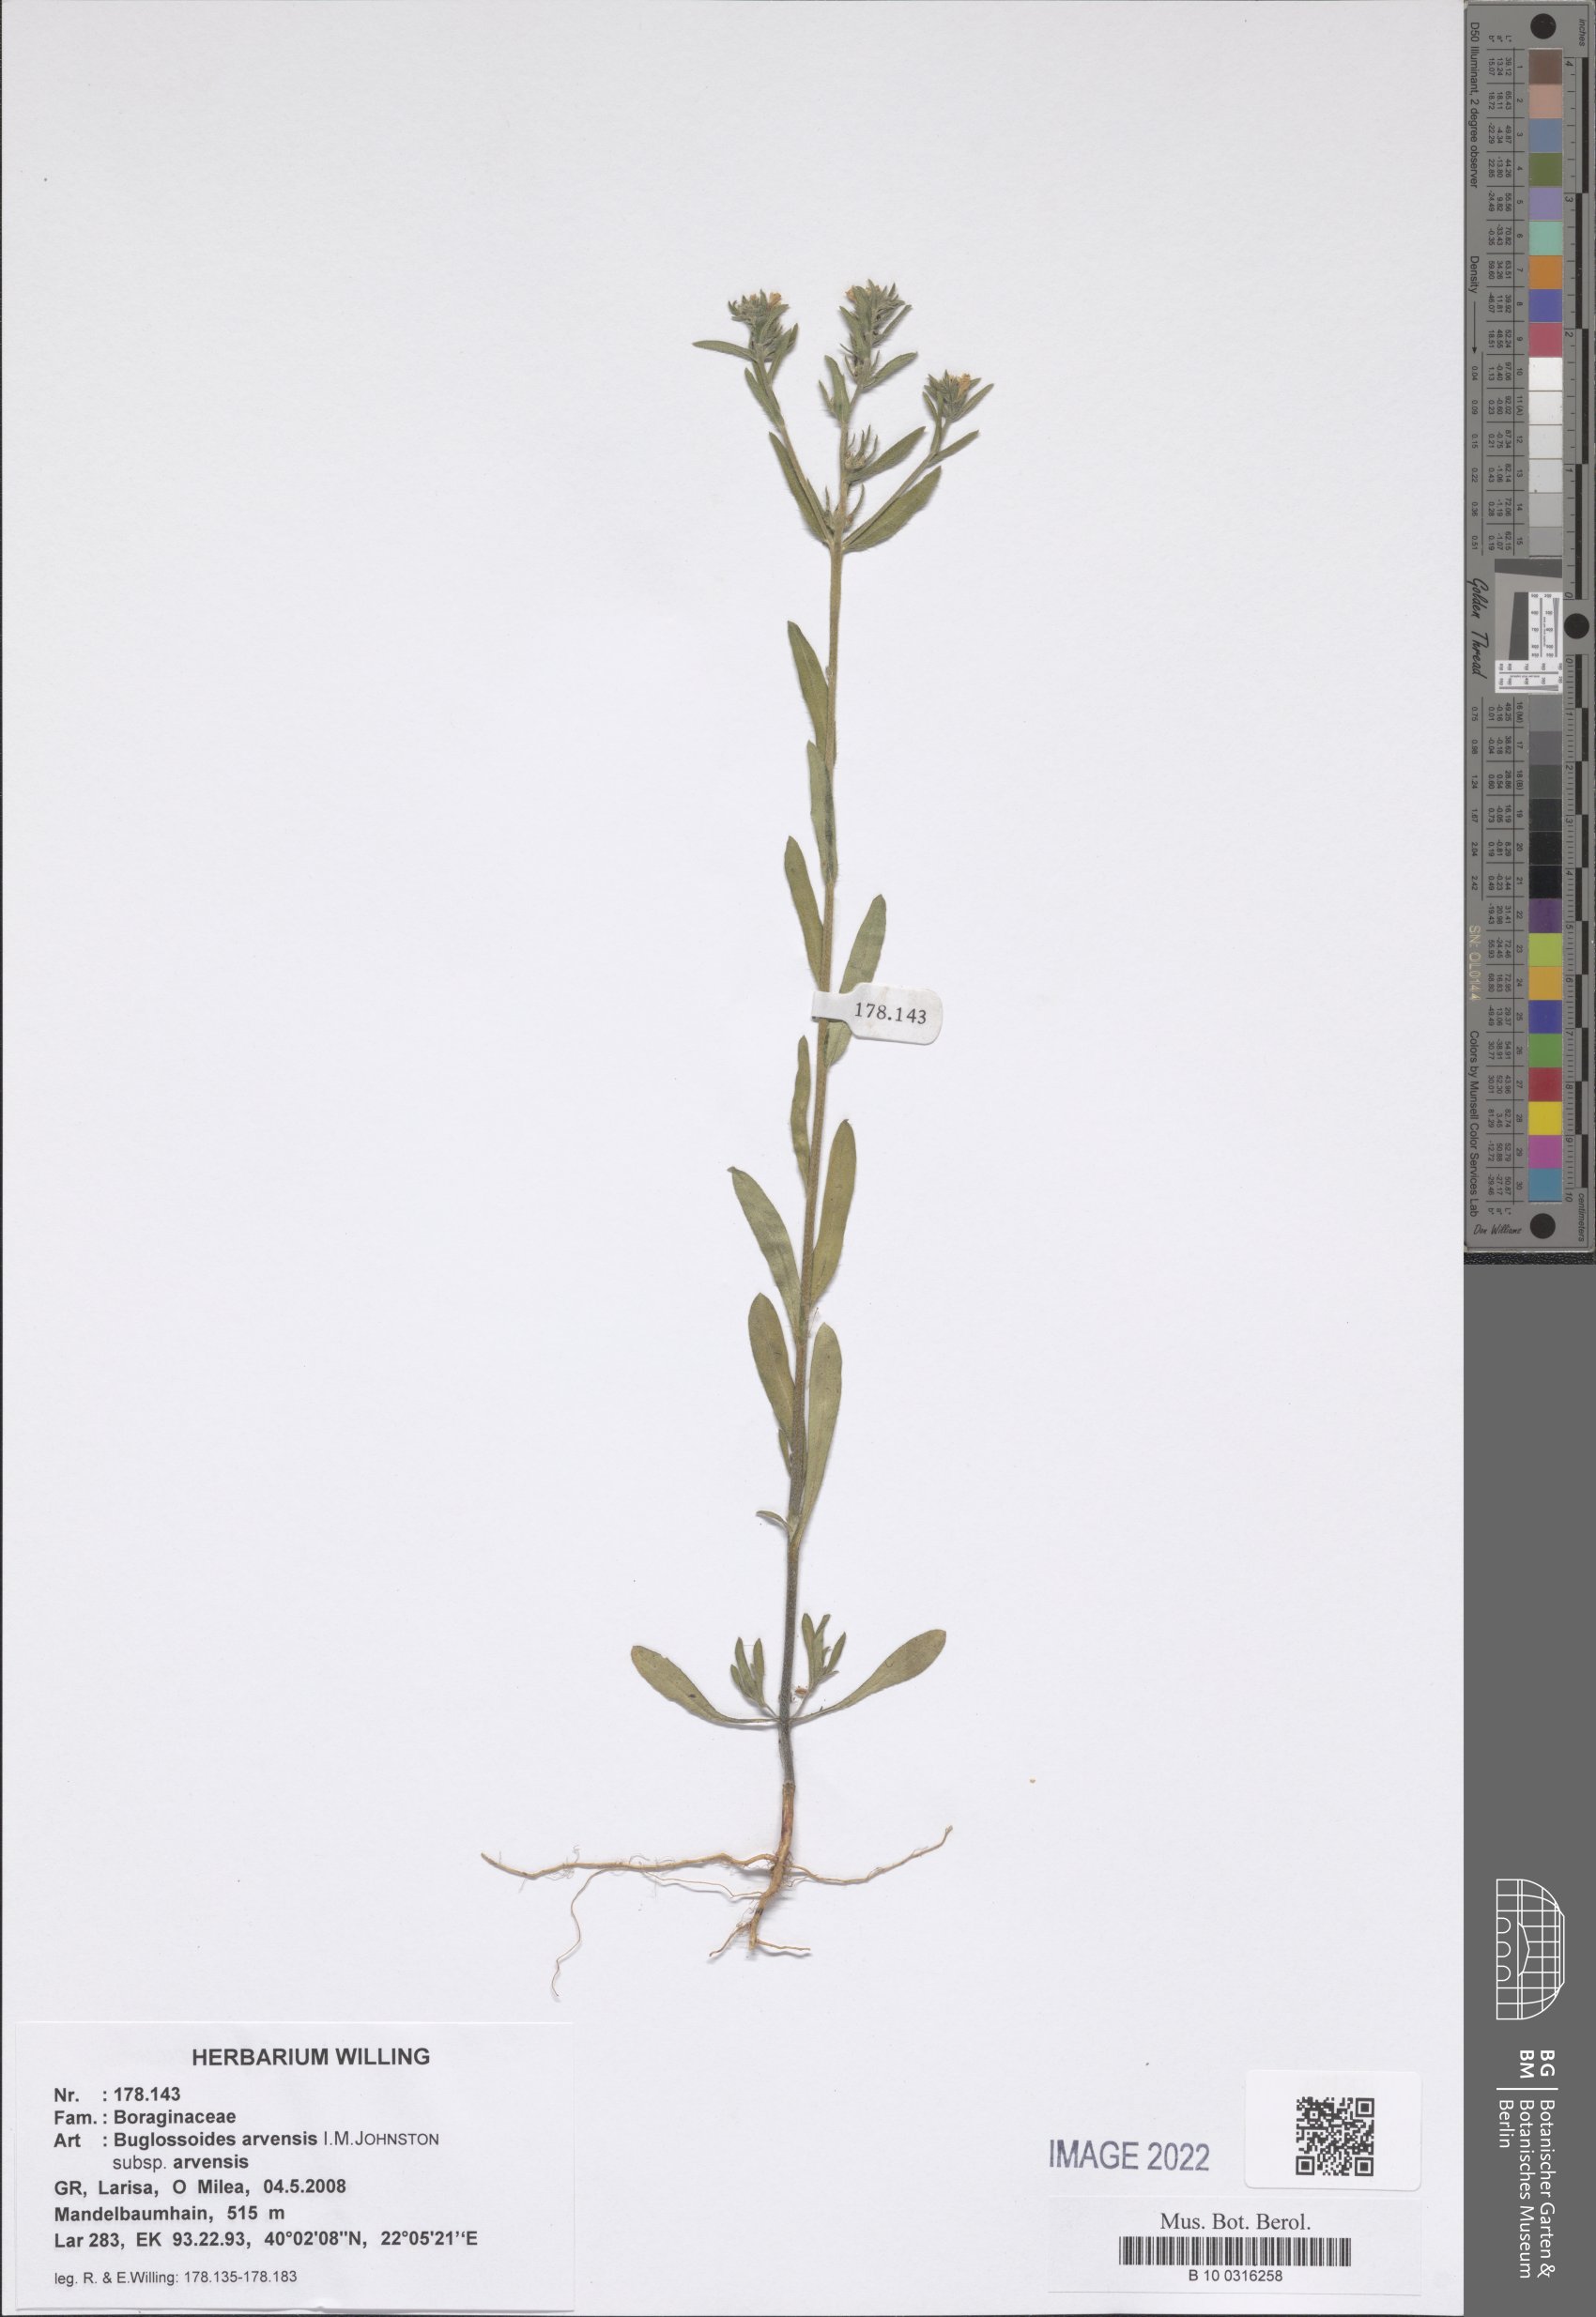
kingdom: Plantae
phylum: Tracheophyta
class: Magnoliopsida
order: Boraginales
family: Boraginaceae
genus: Buglossoides
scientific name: Buglossoides arvensis
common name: Corn gromwell
